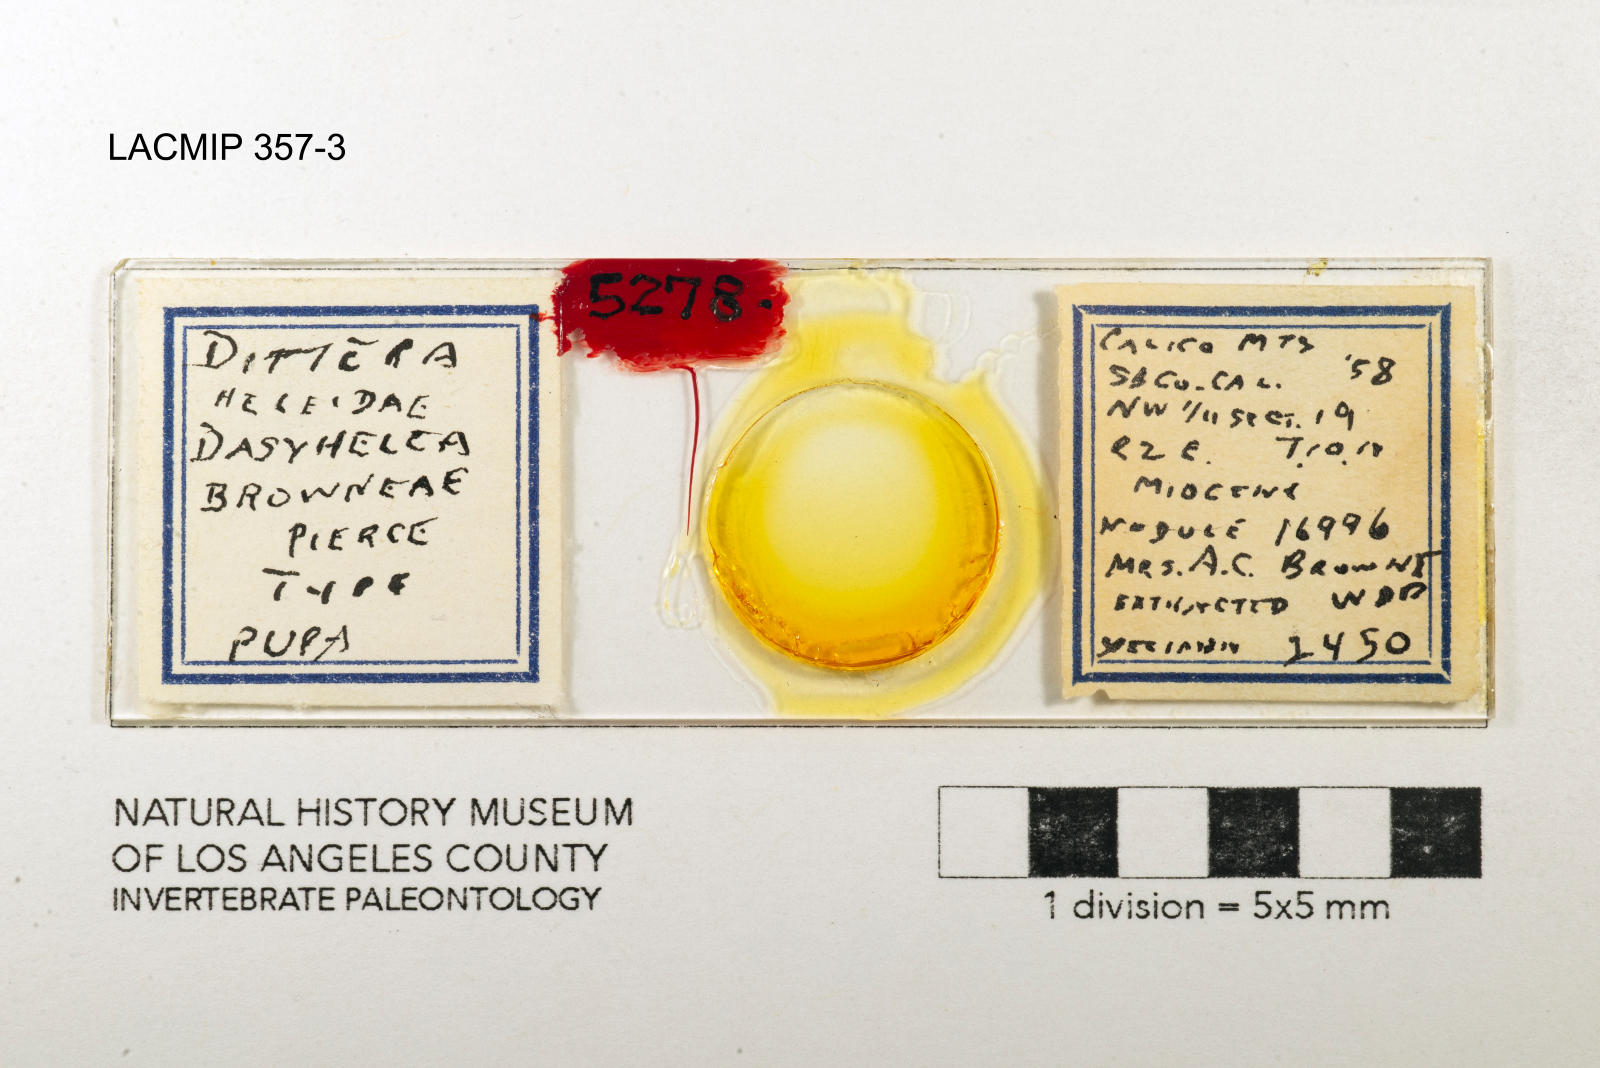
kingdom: Animalia
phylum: Arthropoda
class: Insecta
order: Diptera
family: Ceratopogonidae
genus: Dasyhelea
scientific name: Dasyhelea browneae
